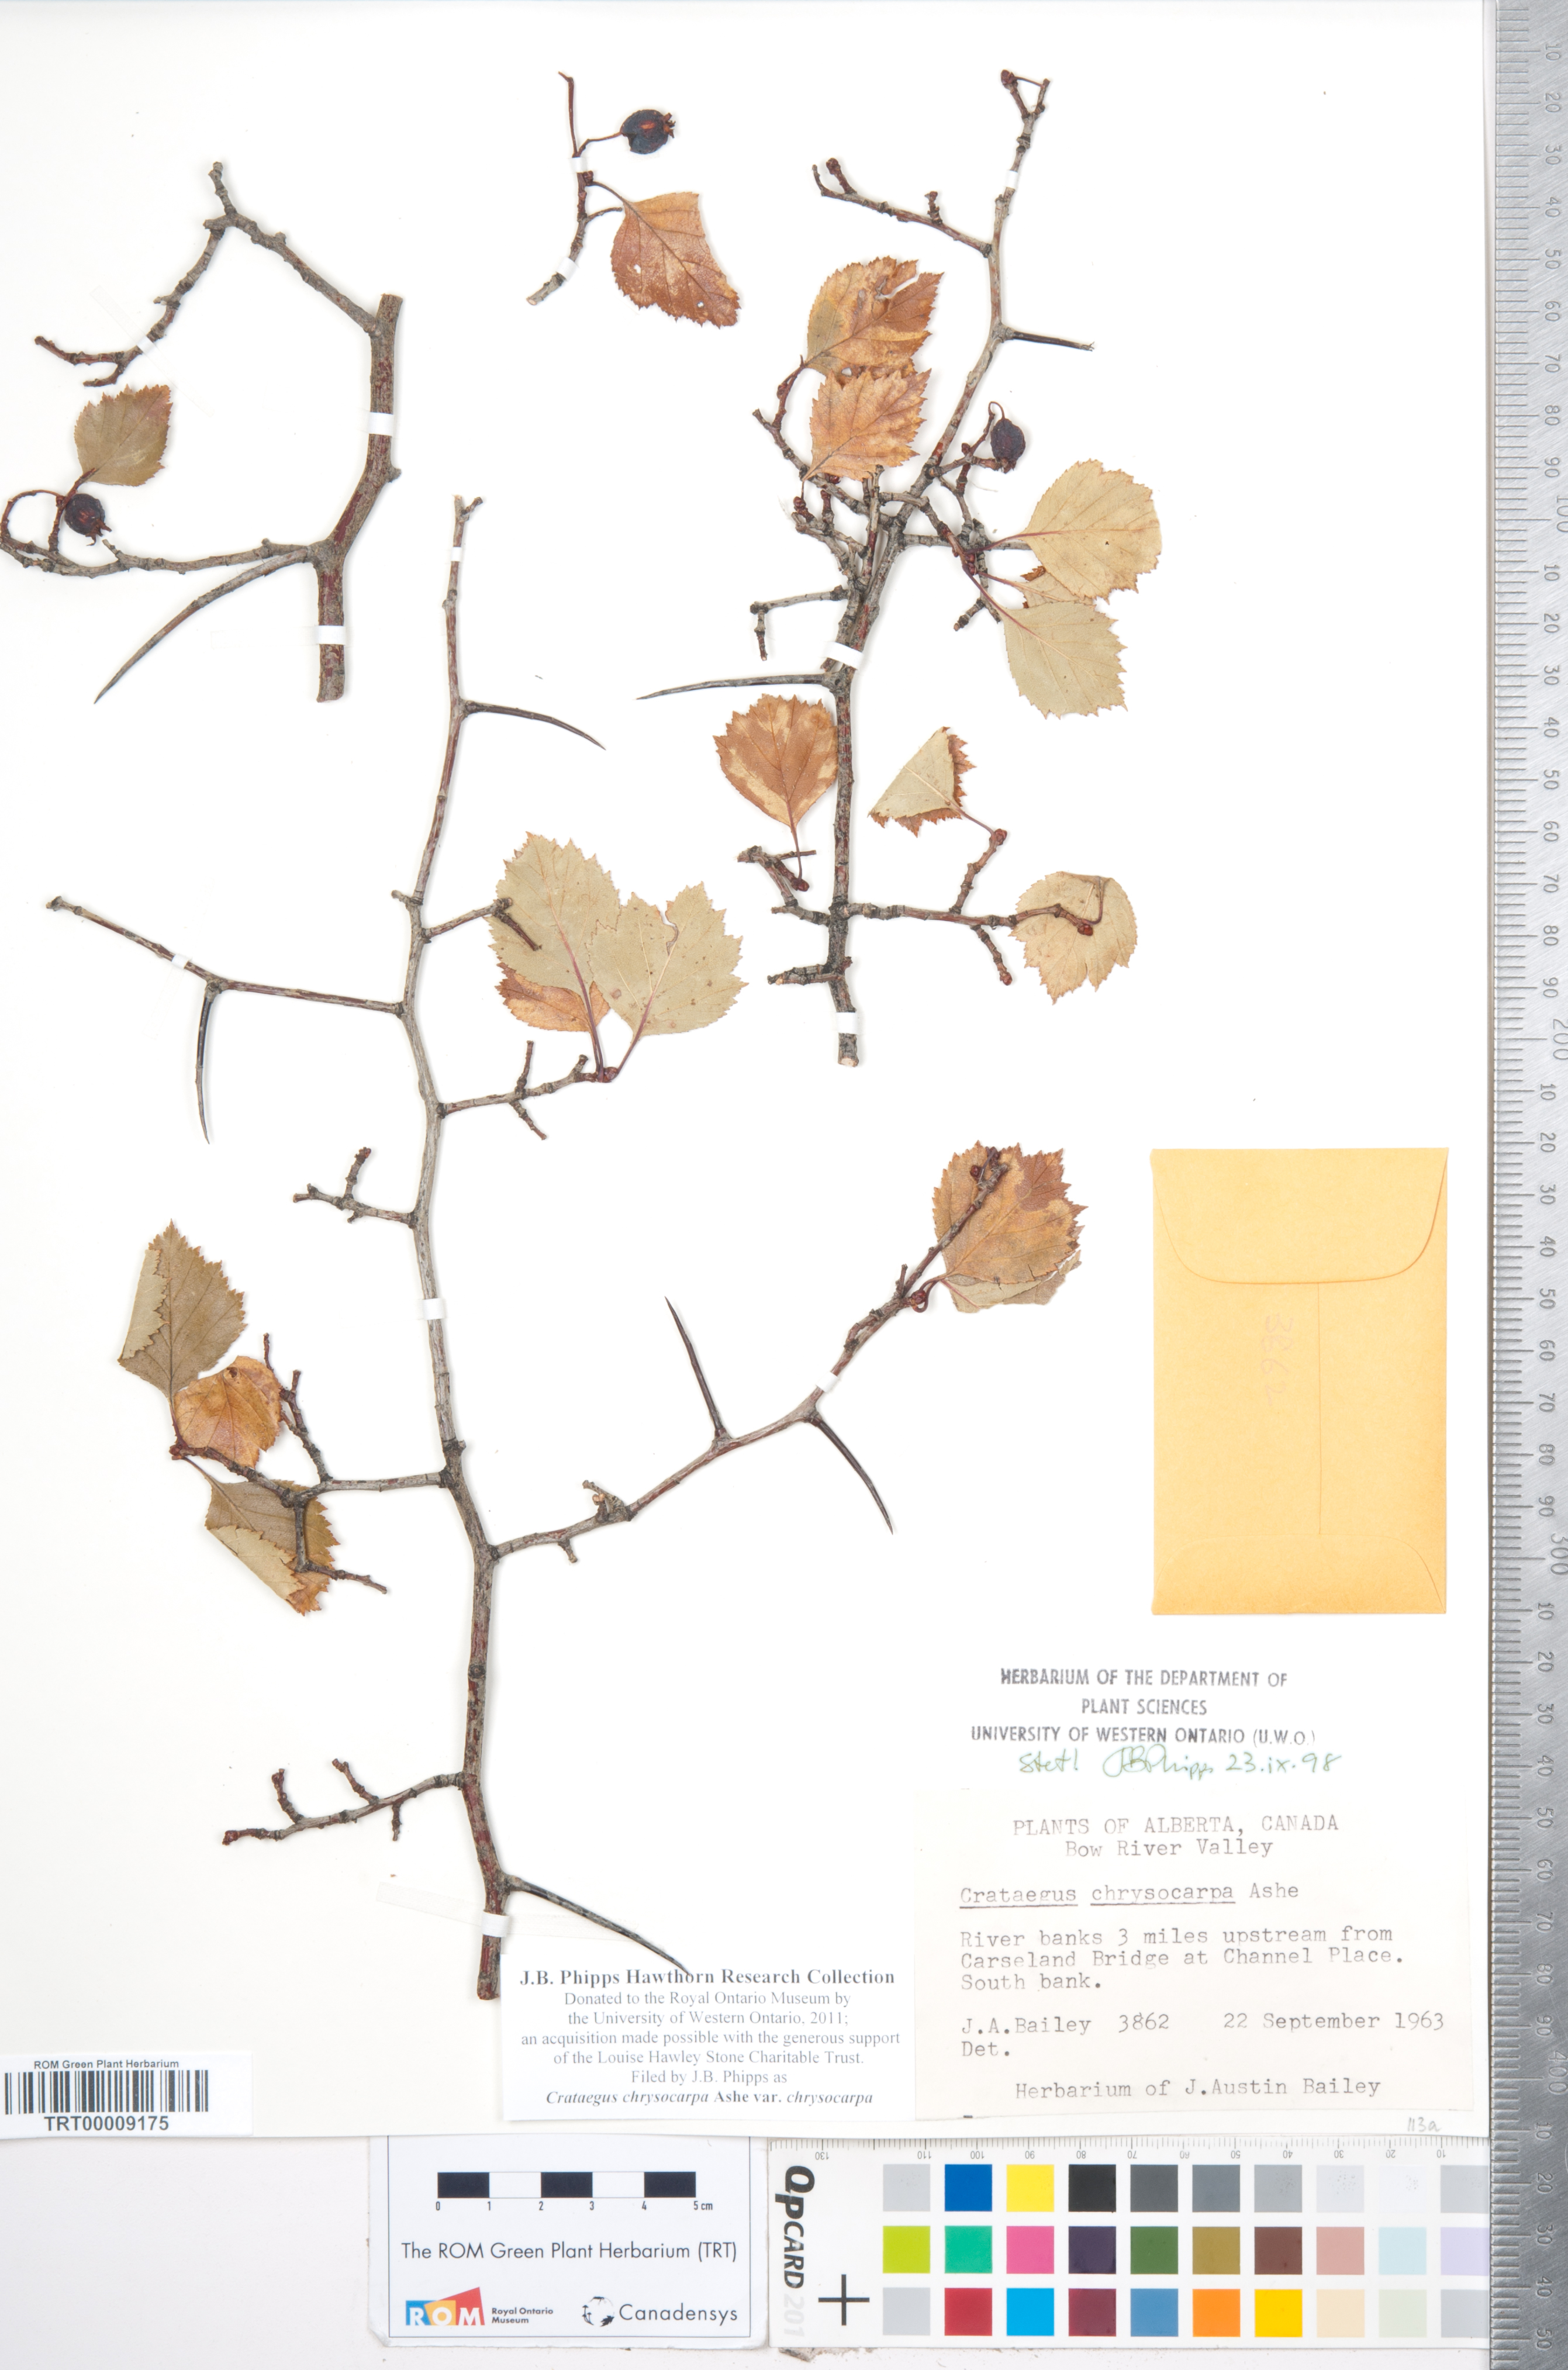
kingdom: Plantae
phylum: Tracheophyta
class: Magnoliopsida
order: Rosales
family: Rosaceae
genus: Crataegus
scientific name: Crataegus chrysocarpa
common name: Fire-berry hawthorn
